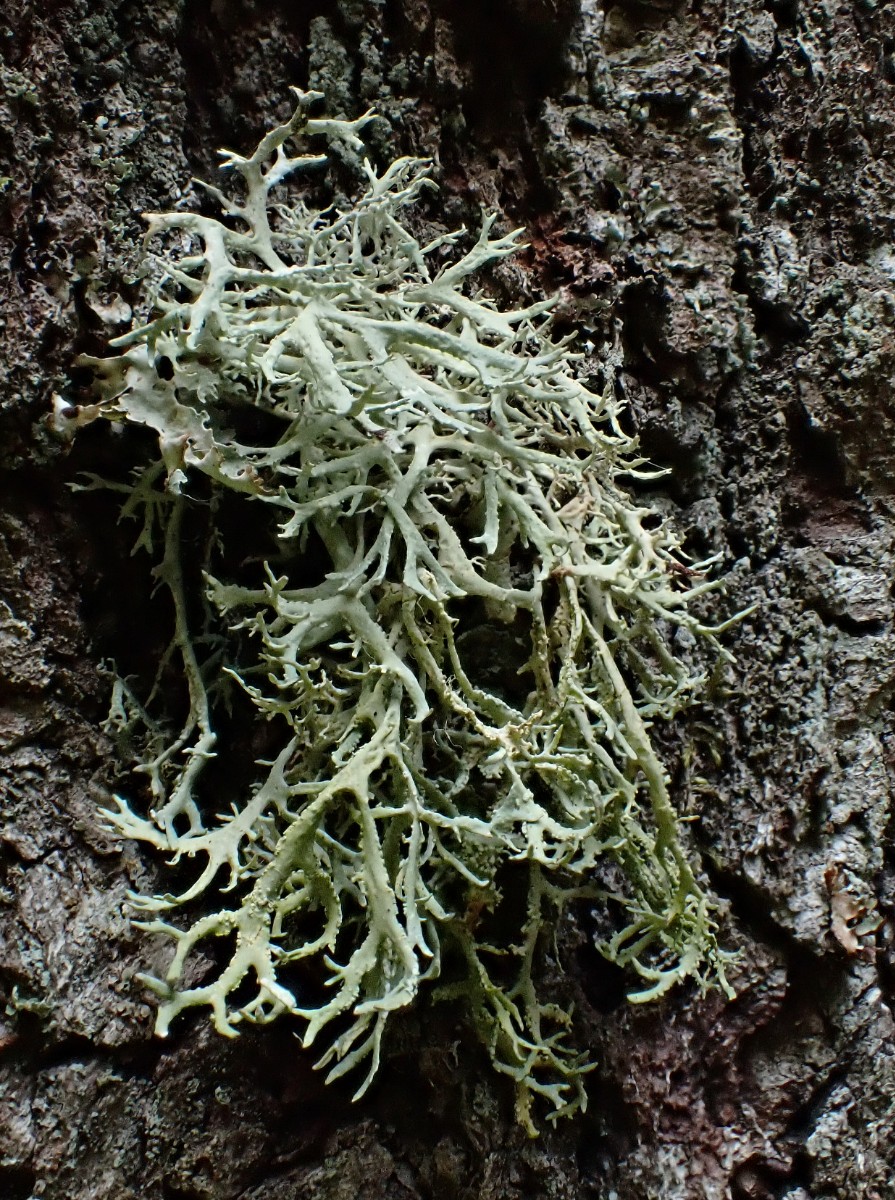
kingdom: Fungi
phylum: Ascomycota
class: Lecanoromycetes
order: Lecanorales
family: Parmeliaceae
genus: Evernia
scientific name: Evernia prunastri
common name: almindelig slåenlav
